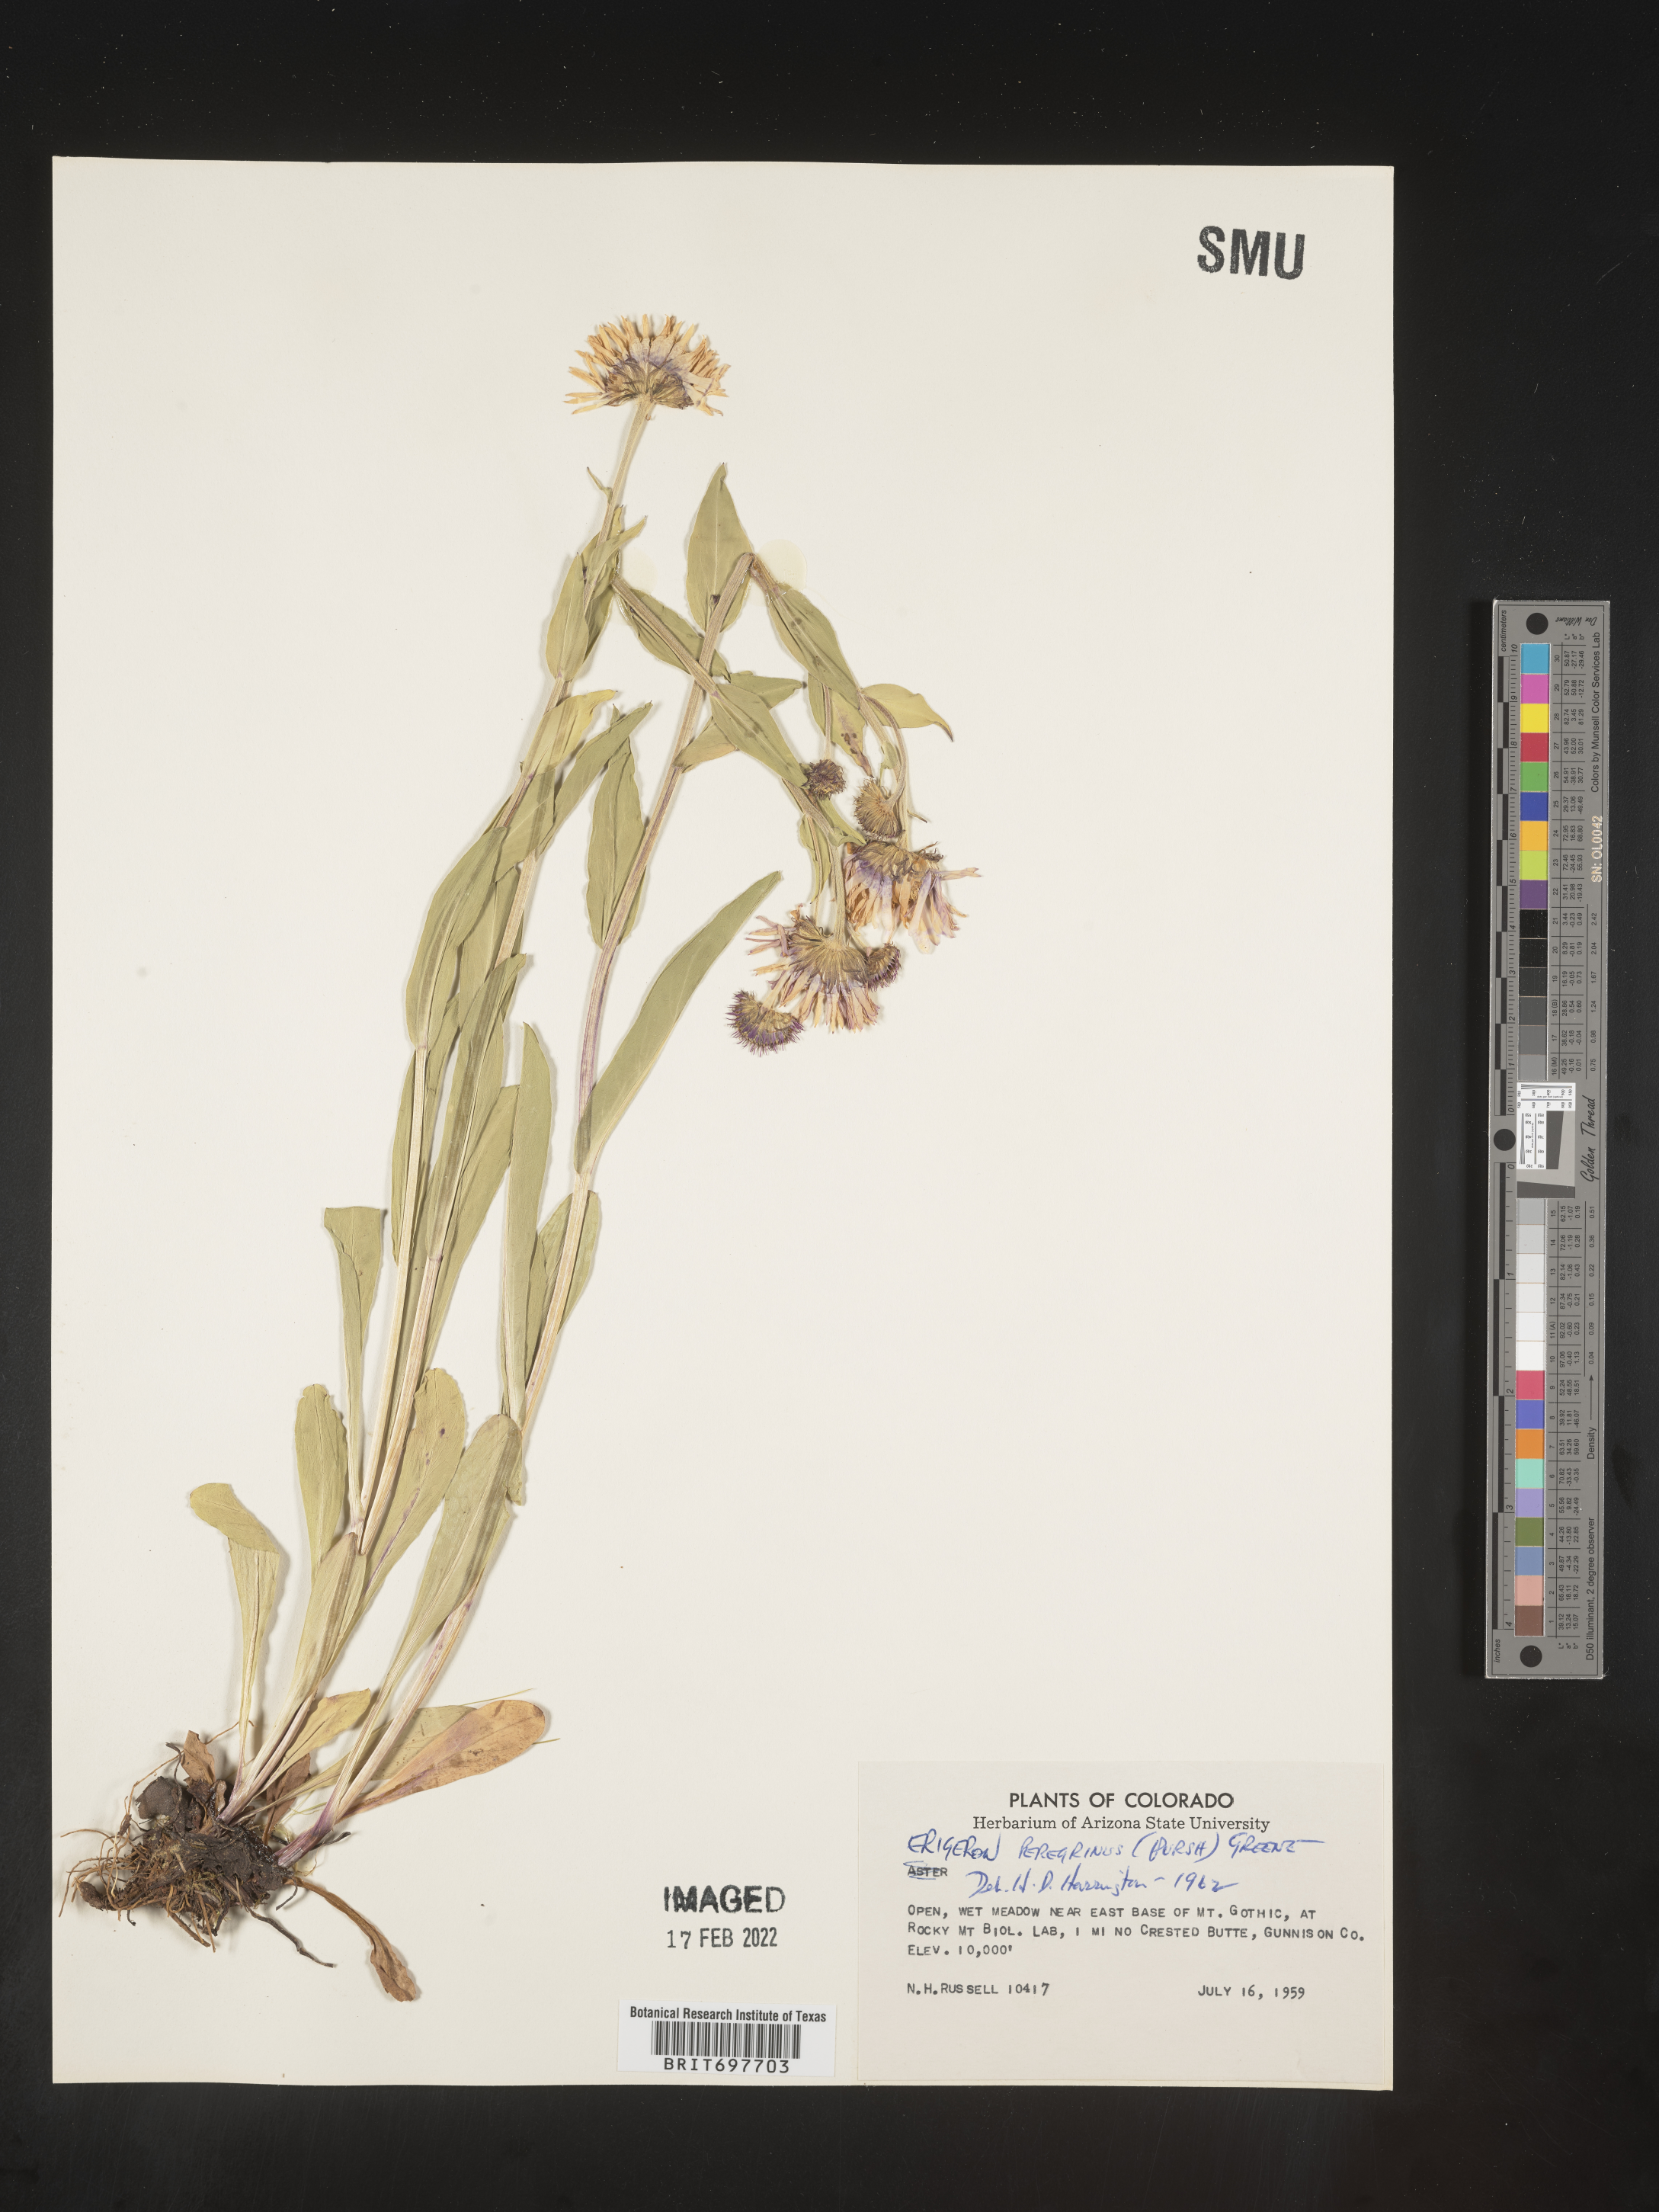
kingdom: Plantae
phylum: Tracheophyta
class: Magnoliopsida
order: Asterales
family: Asteraceae
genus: Erigeron
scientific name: Erigeron glacialis
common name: Subalpine fleabane
